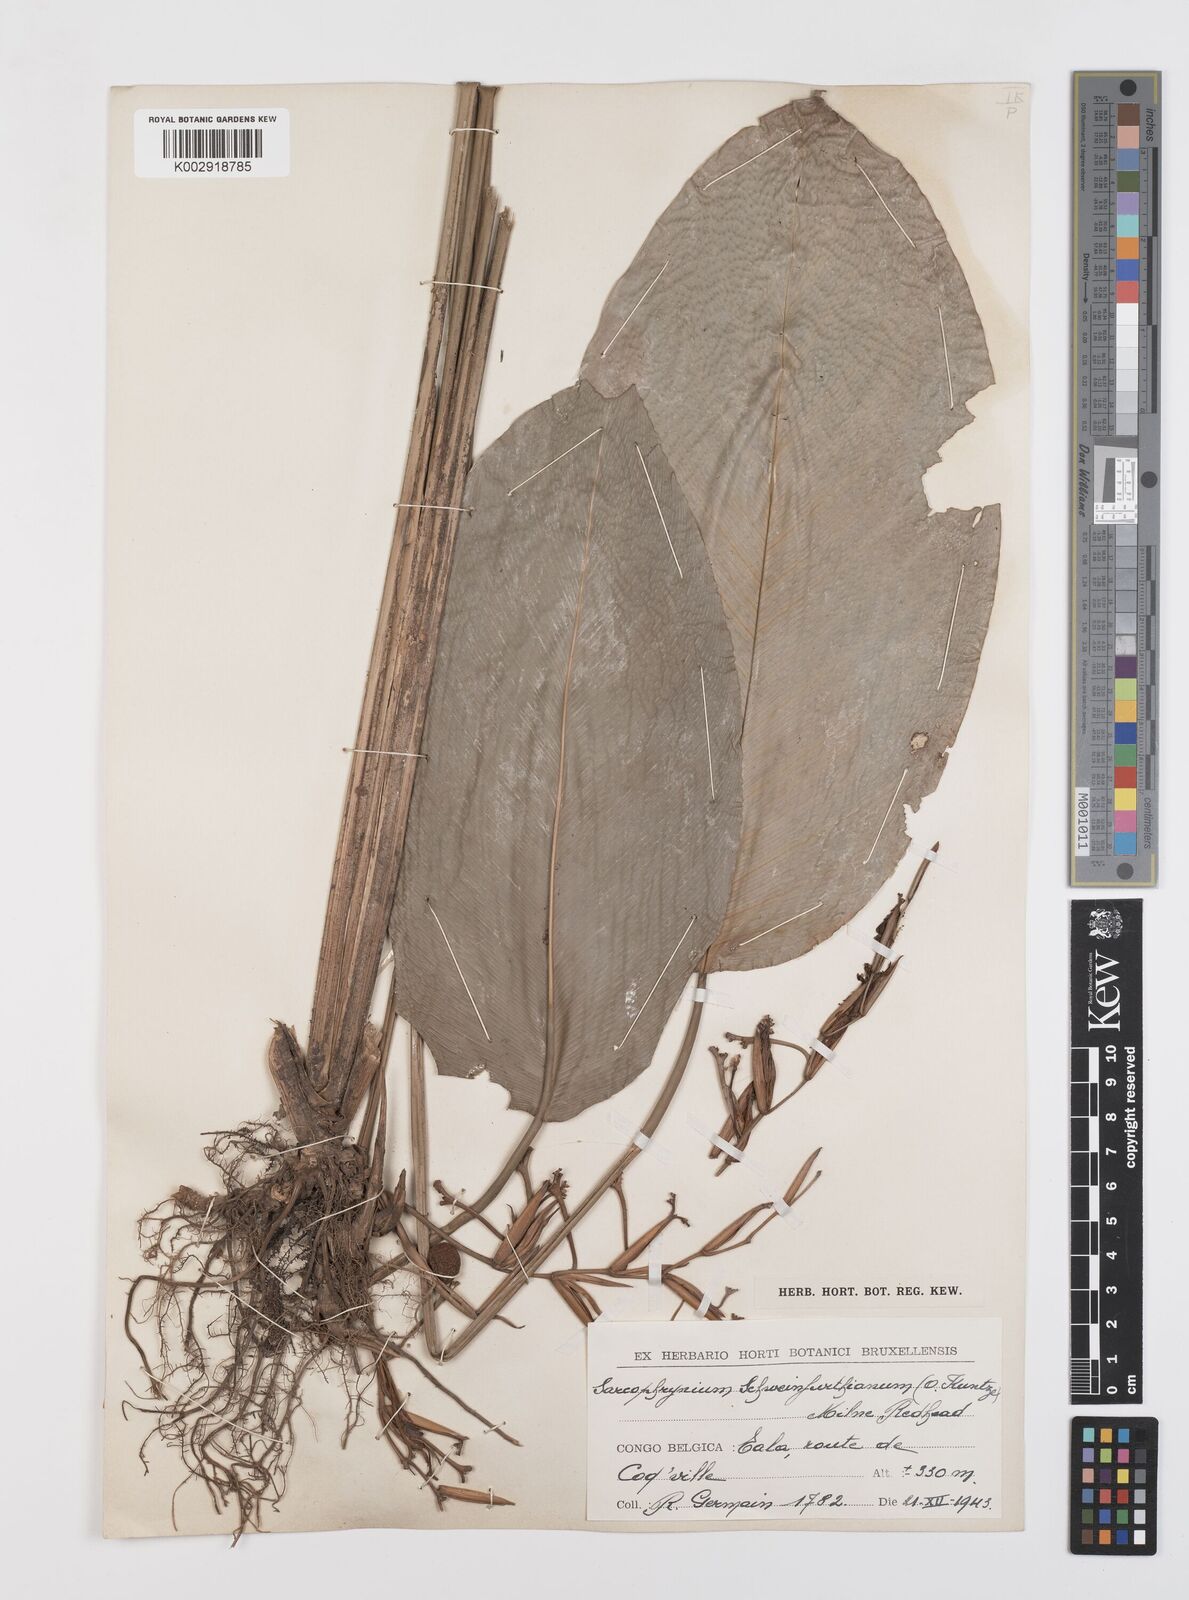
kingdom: Plantae
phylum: Tracheophyta
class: Liliopsida
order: Zingiberales
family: Marantaceae
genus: Sarcophrynium
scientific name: Sarcophrynium schweinfurthianum
